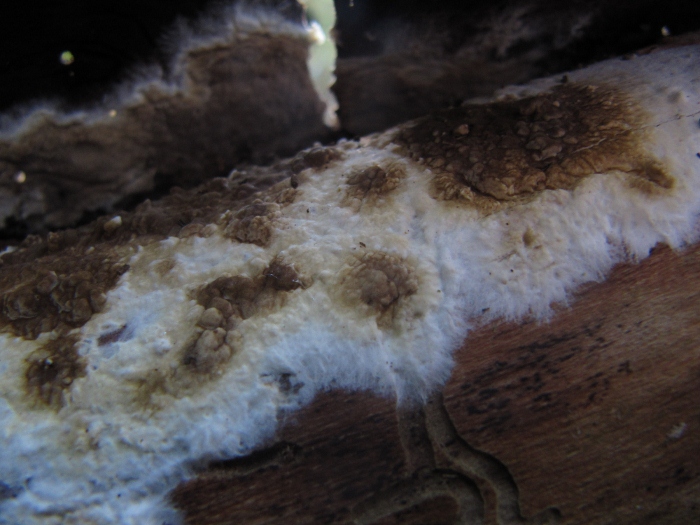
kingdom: Fungi
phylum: Basidiomycota
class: Agaricomycetes
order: Boletales
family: Coniophoraceae
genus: Coniophora
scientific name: Coniophora puteana
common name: gul tømmersvamp
